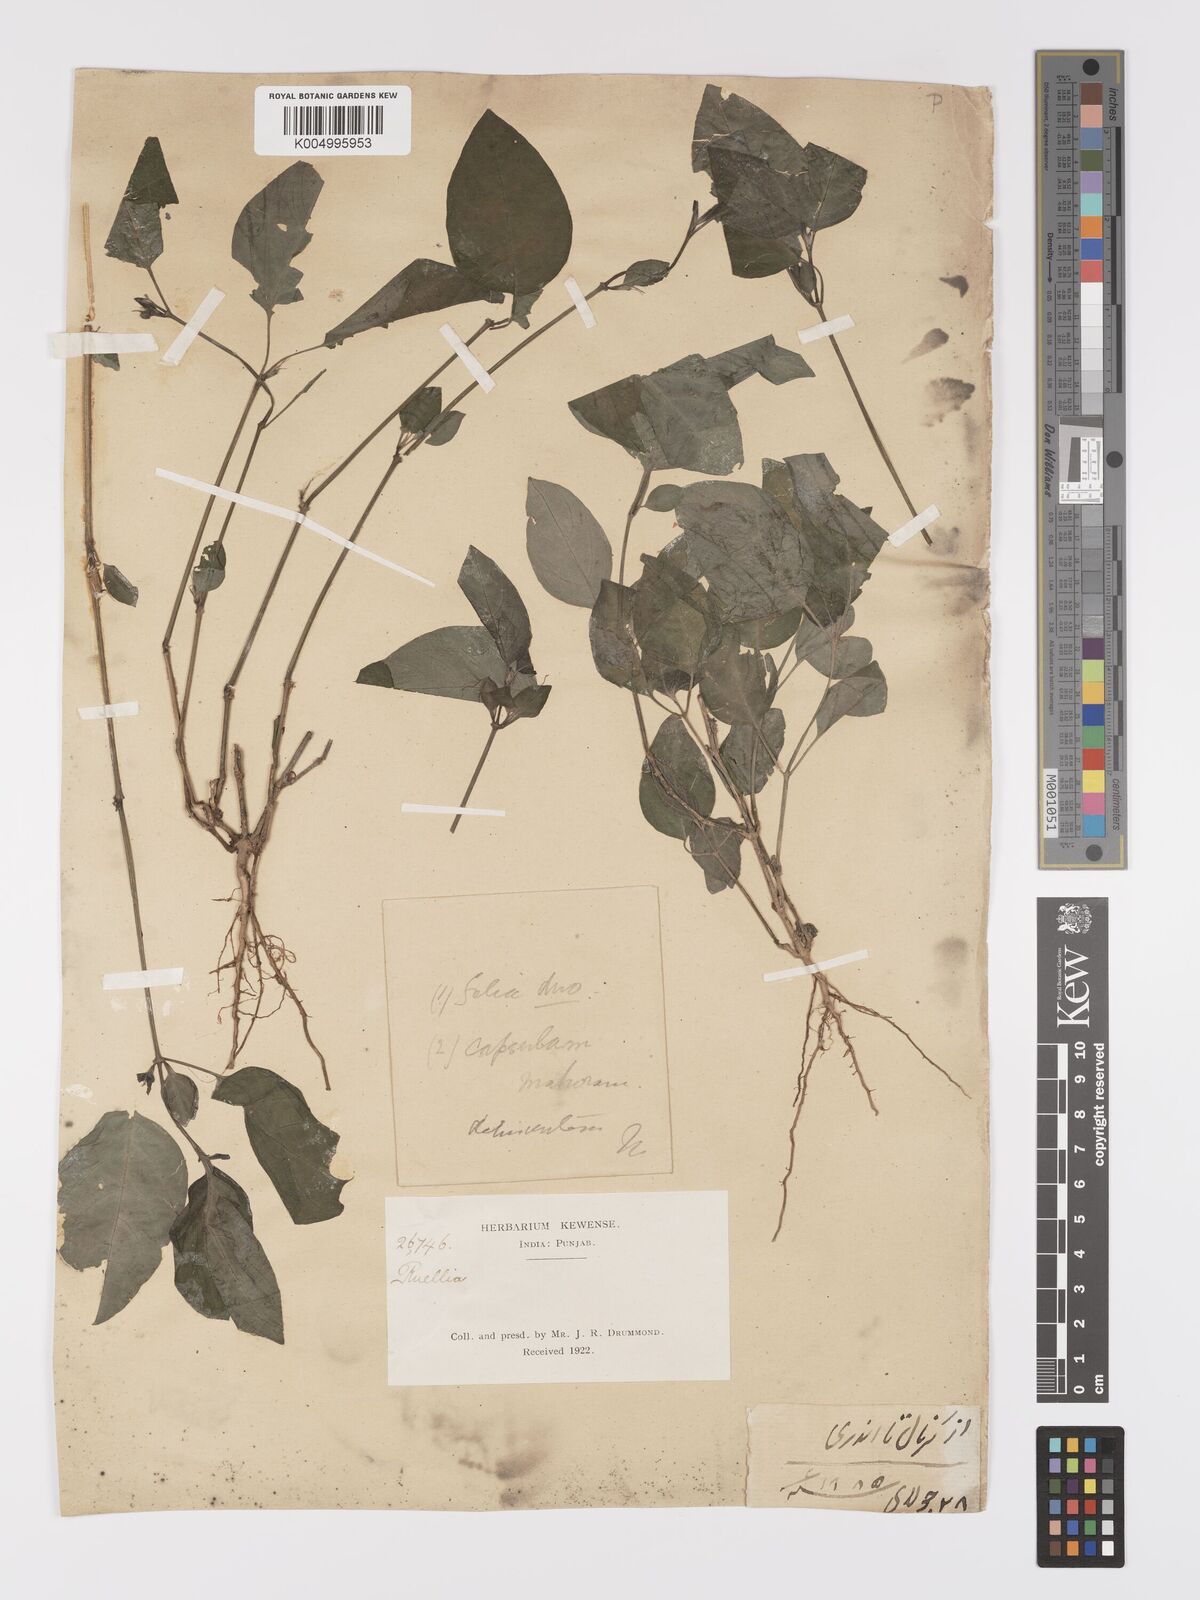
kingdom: Plantae
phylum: Tracheophyta
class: Magnoliopsida
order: Lamiales
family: Acanthaceae
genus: Ruellia
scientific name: Ruellia
